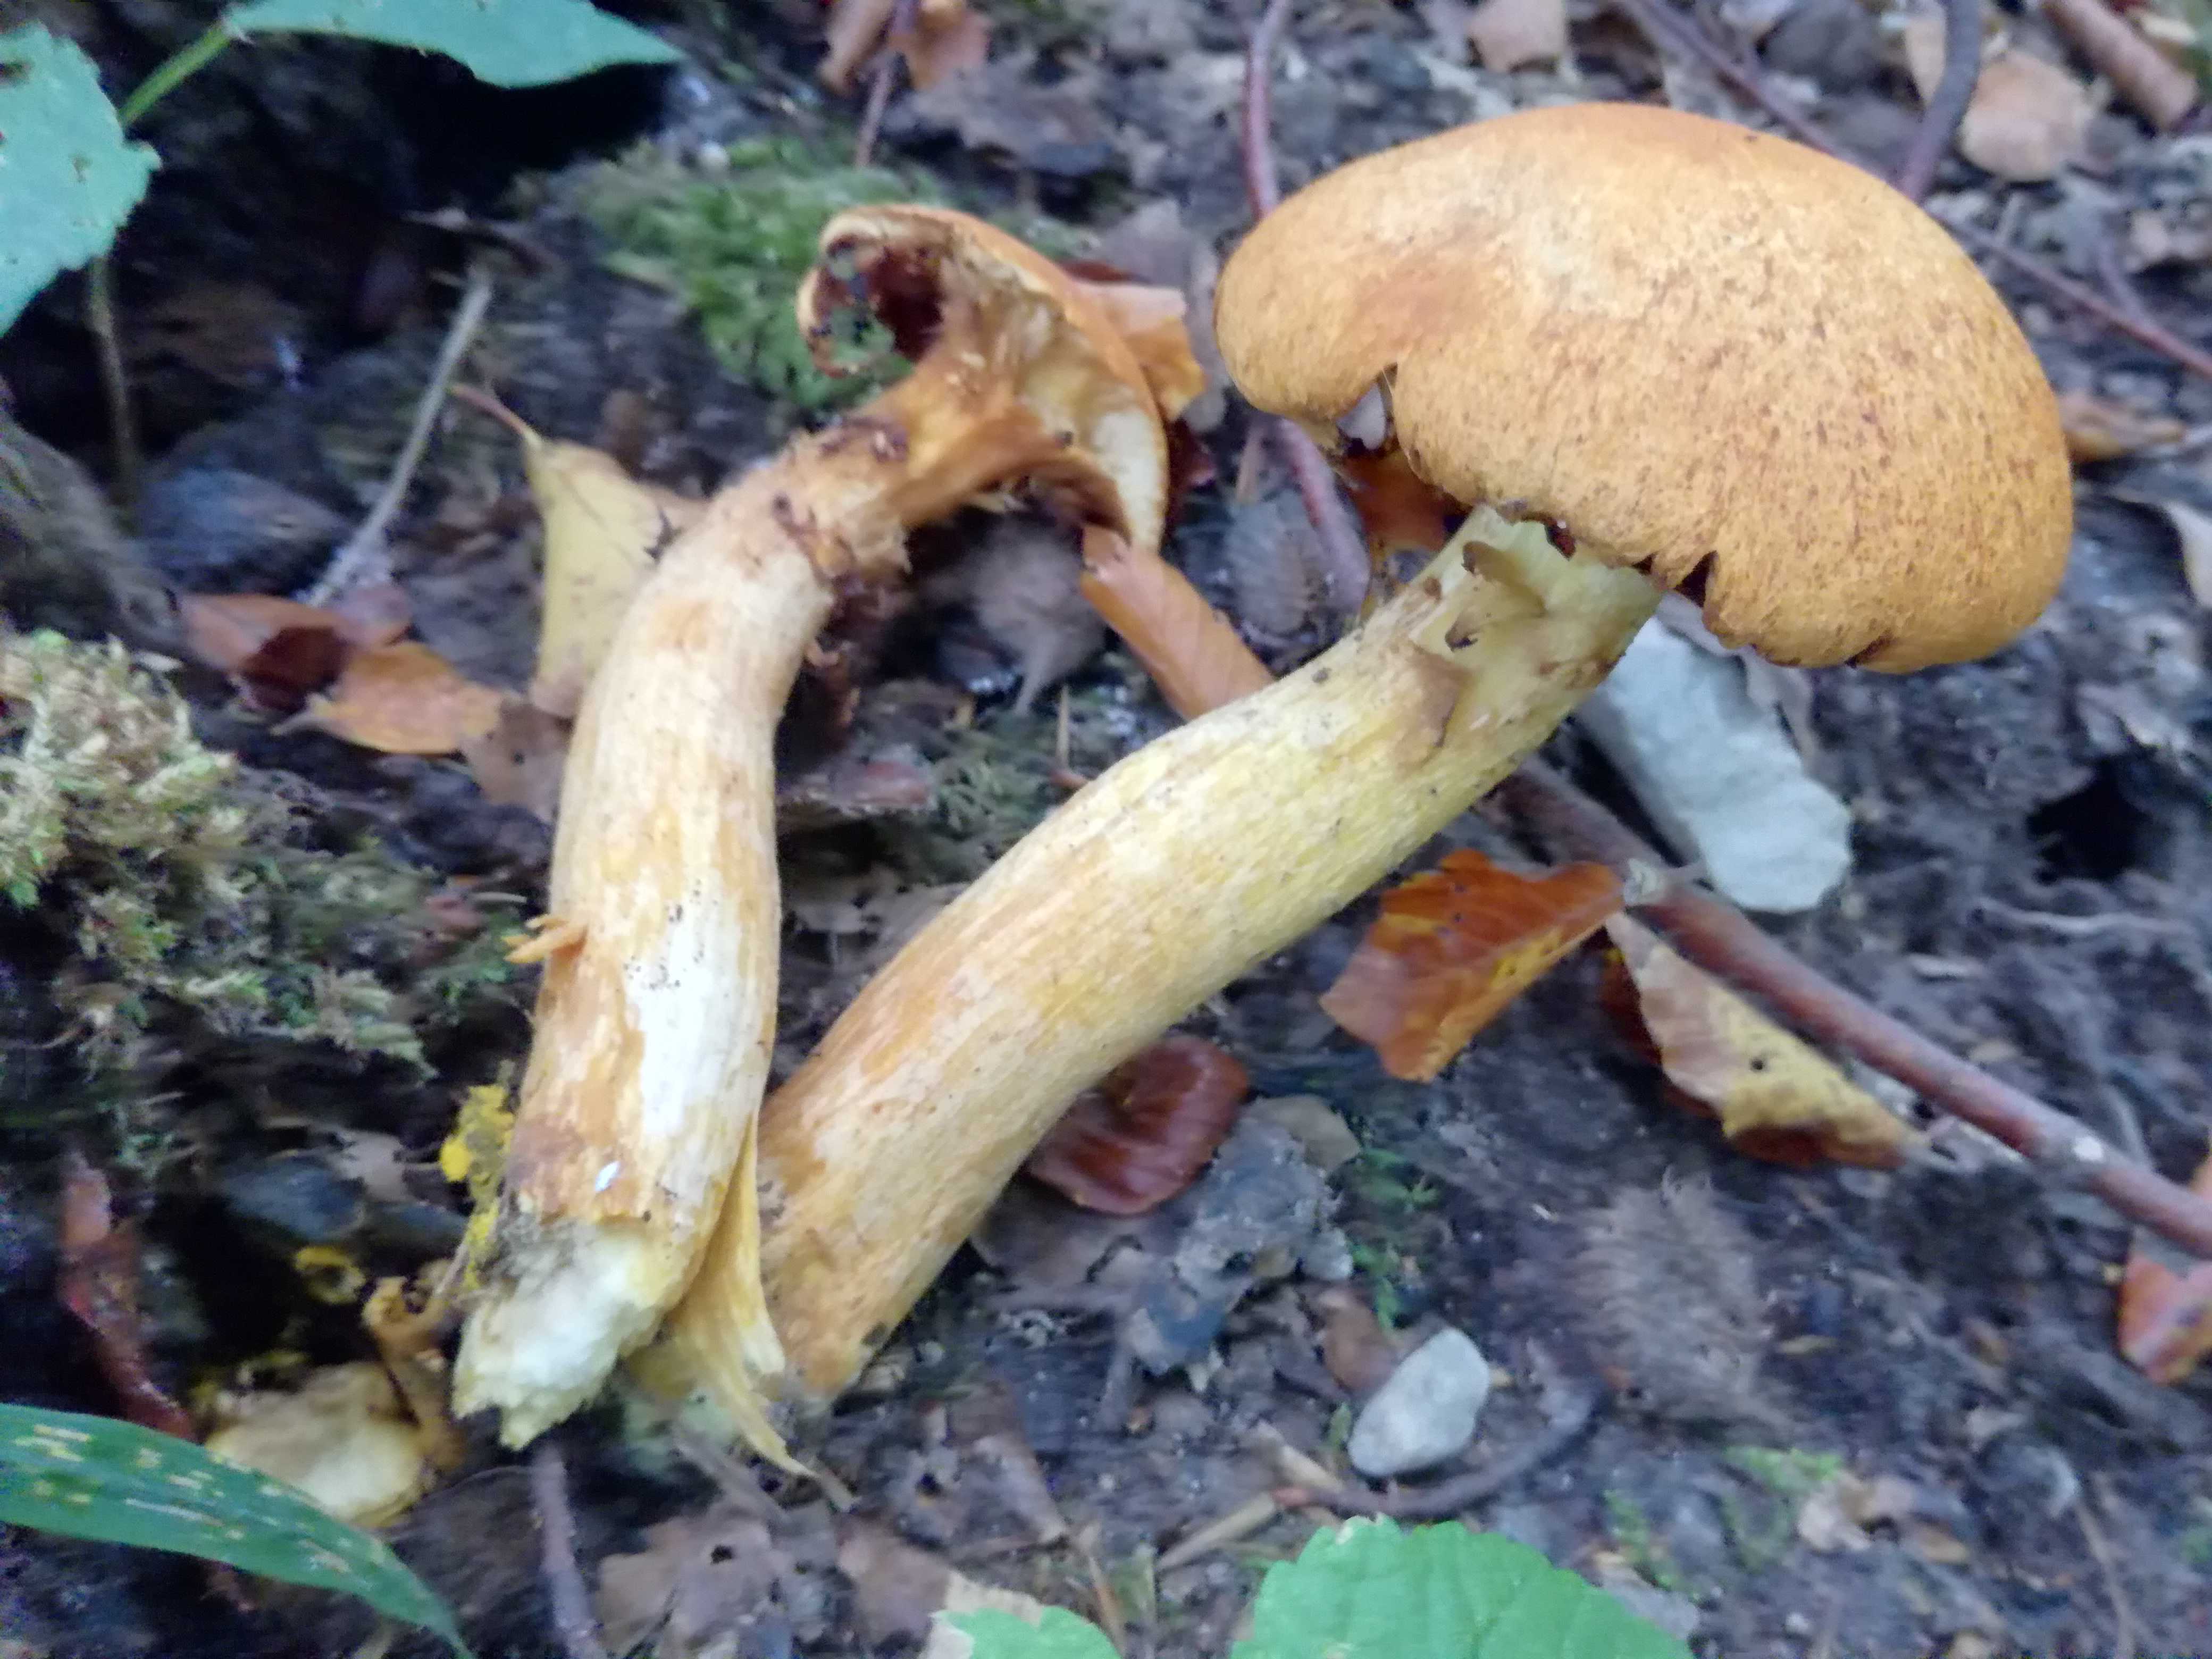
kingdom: Fungi
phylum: Basidiomycota
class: Agaricomycetes
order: Agaricales
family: Hymenogastraceae
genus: Gymnopilus
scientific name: Gymnopilus spectabilis
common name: fibret flammehat
